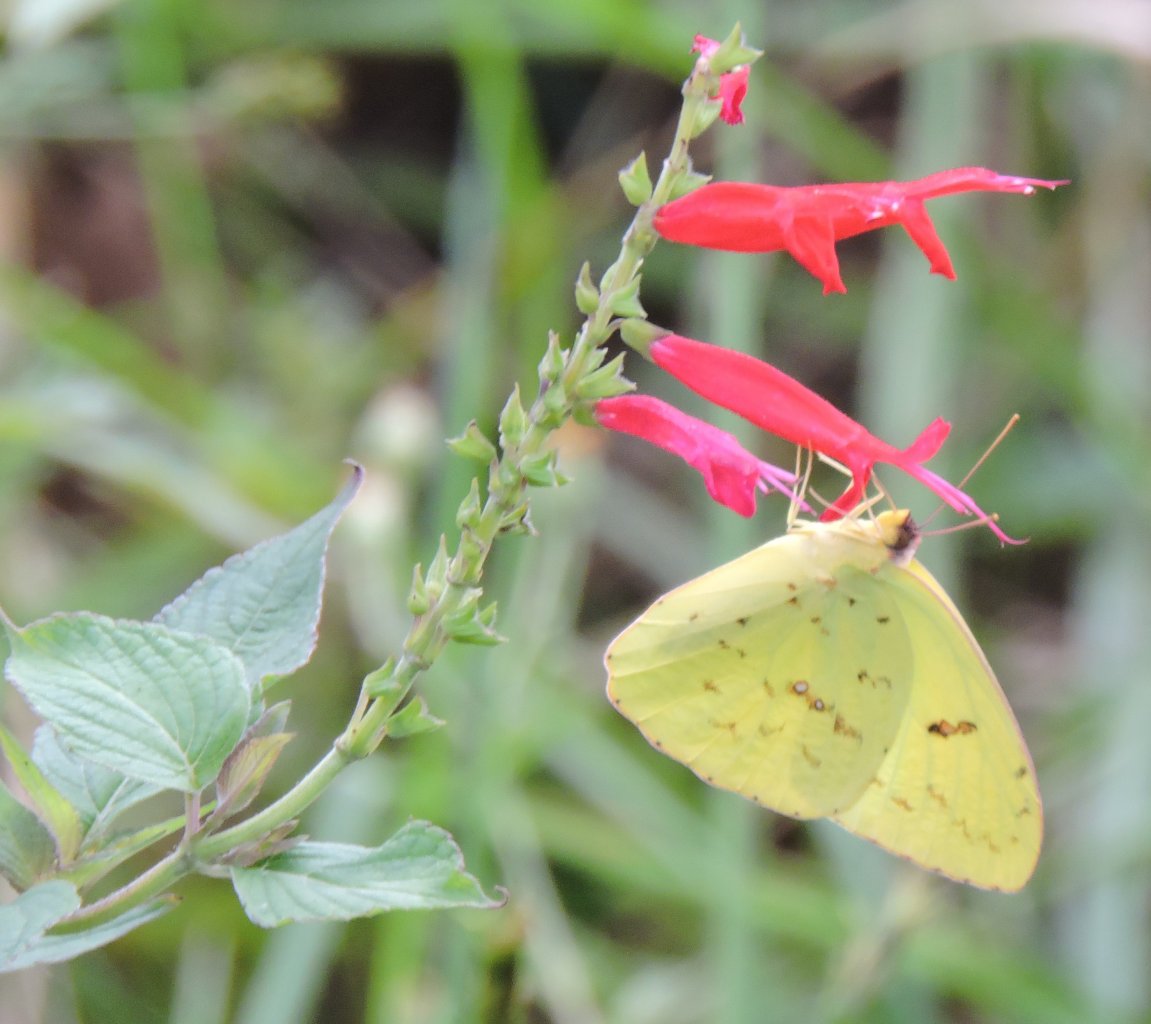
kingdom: Animalia
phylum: Arthropoda
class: Insecta
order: Lepidoptera
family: Pieridae
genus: Phoebis
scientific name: Phoebis sennae
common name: Cloudless Sulphur
